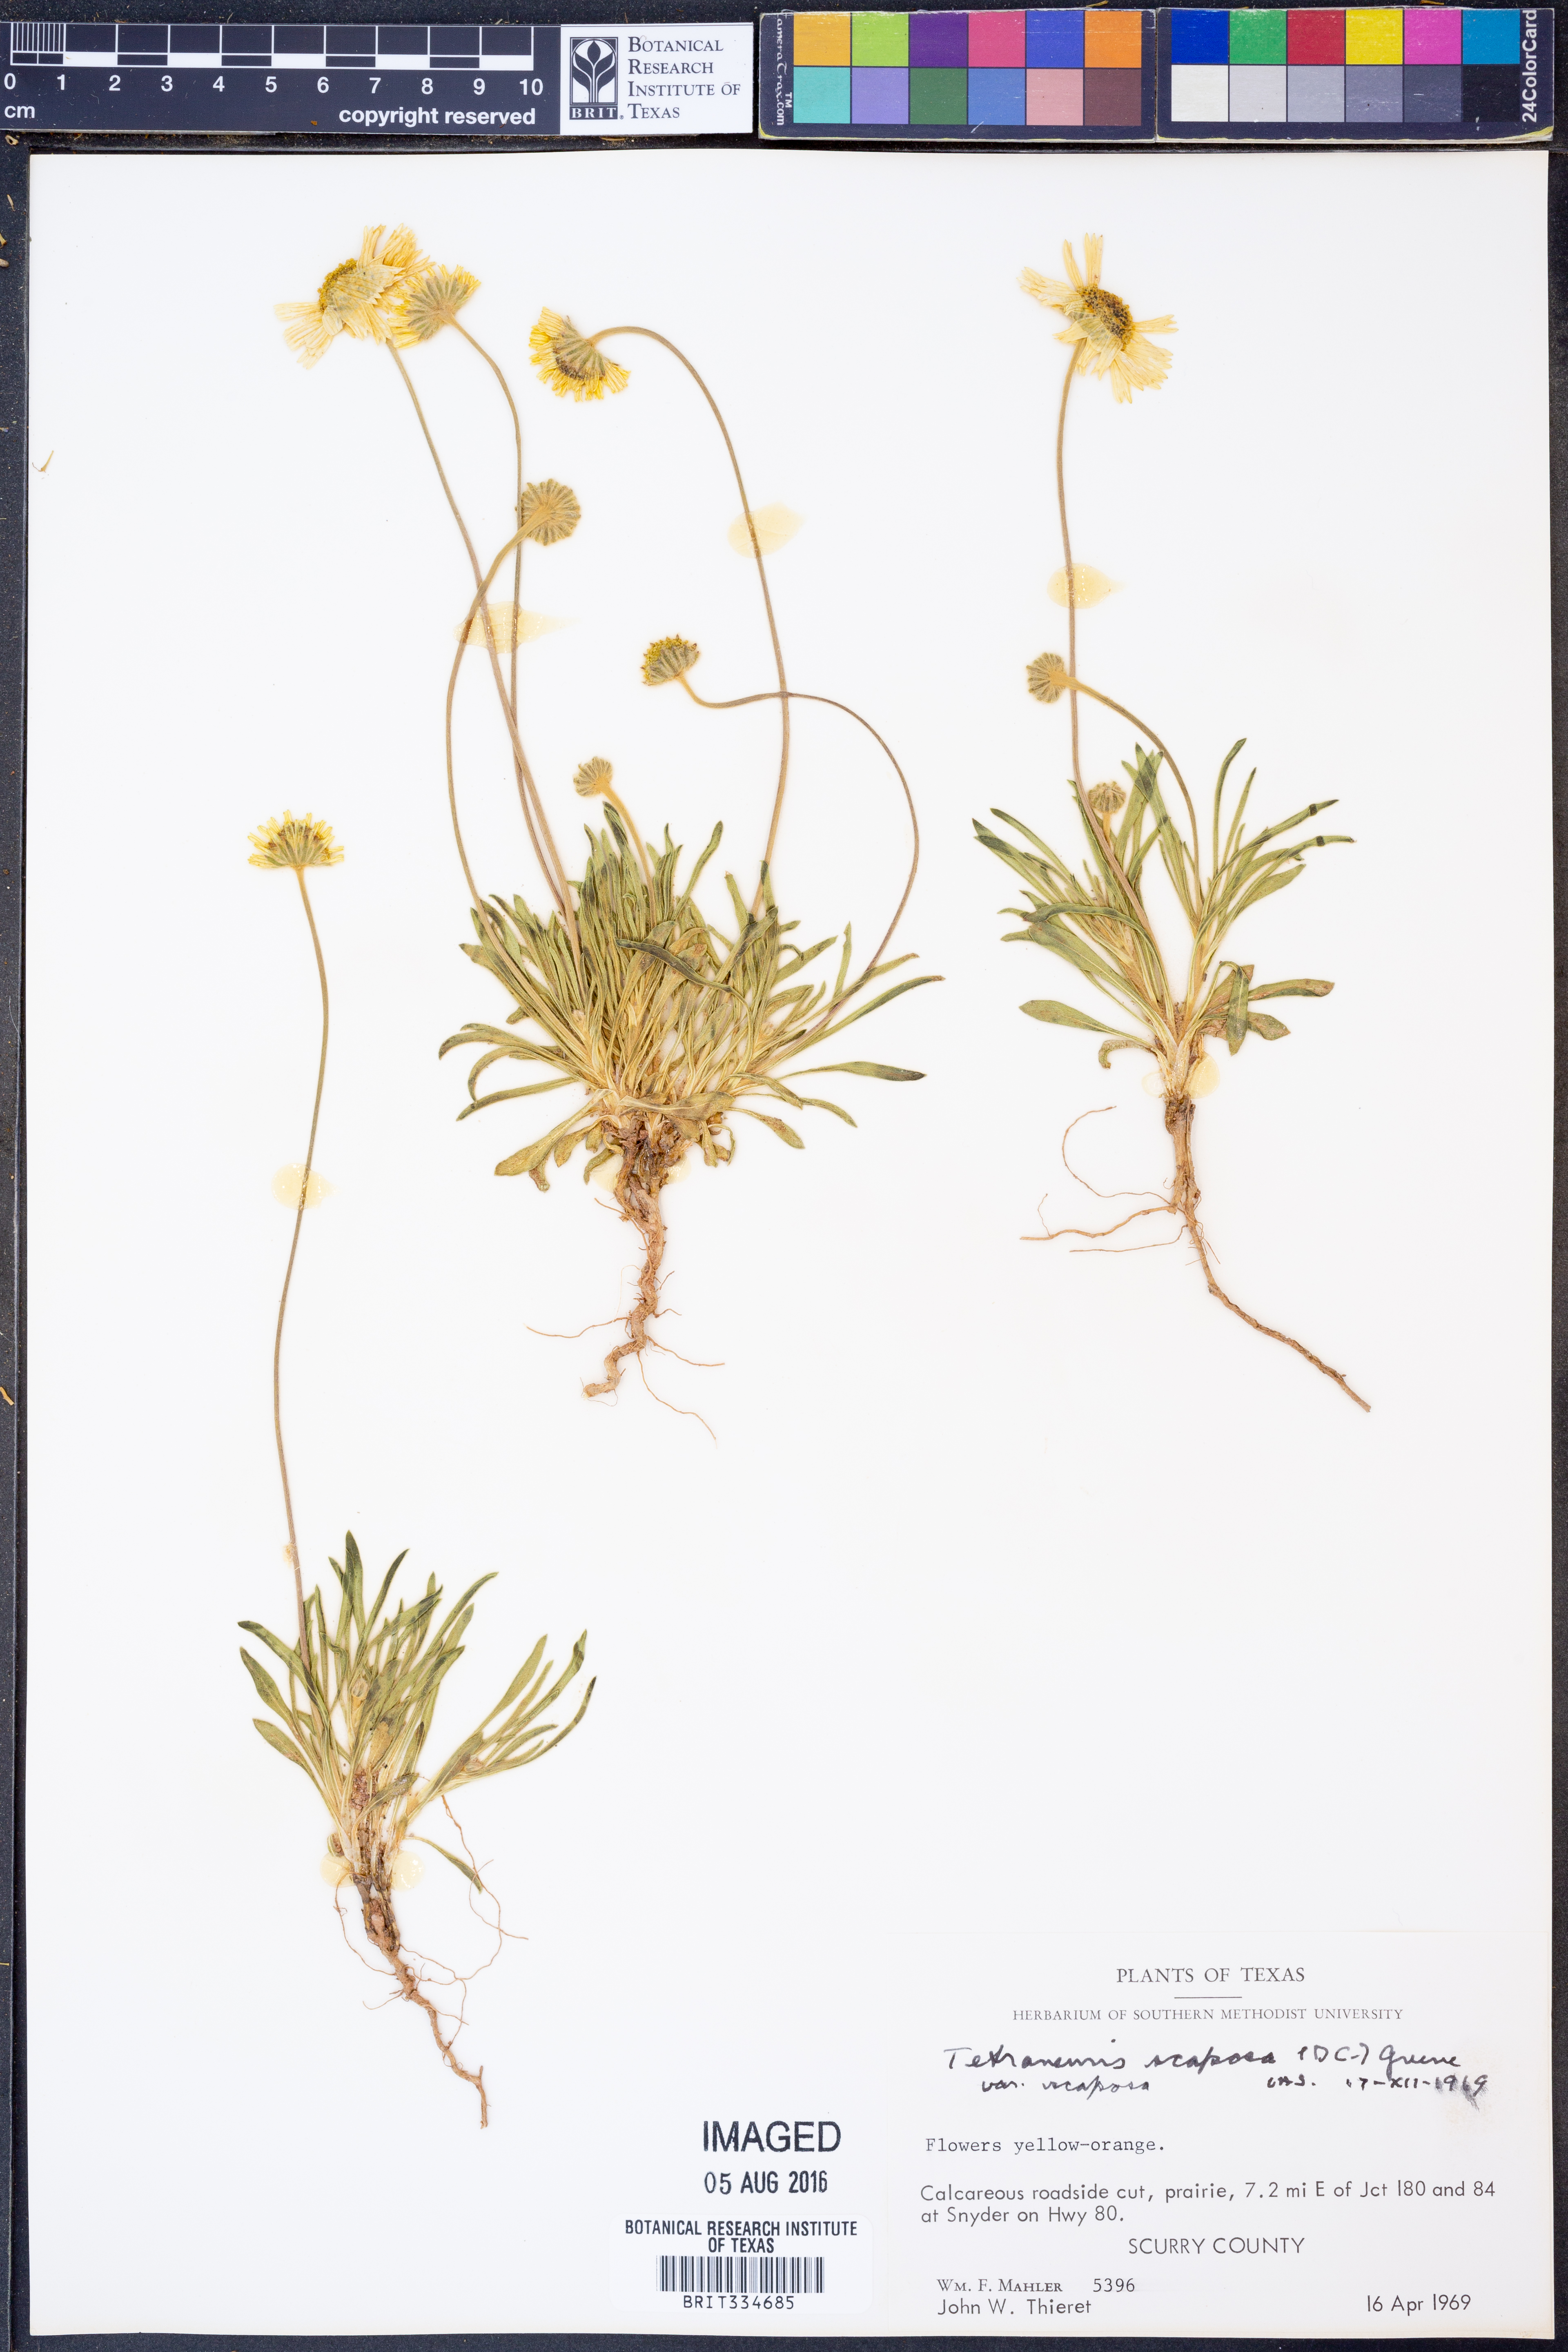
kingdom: Plantae
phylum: Tracheophyta
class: Magnoliopsida
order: Asterales
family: Asteraceae
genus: Tetraneuris
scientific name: Tetraneuris scaposa
